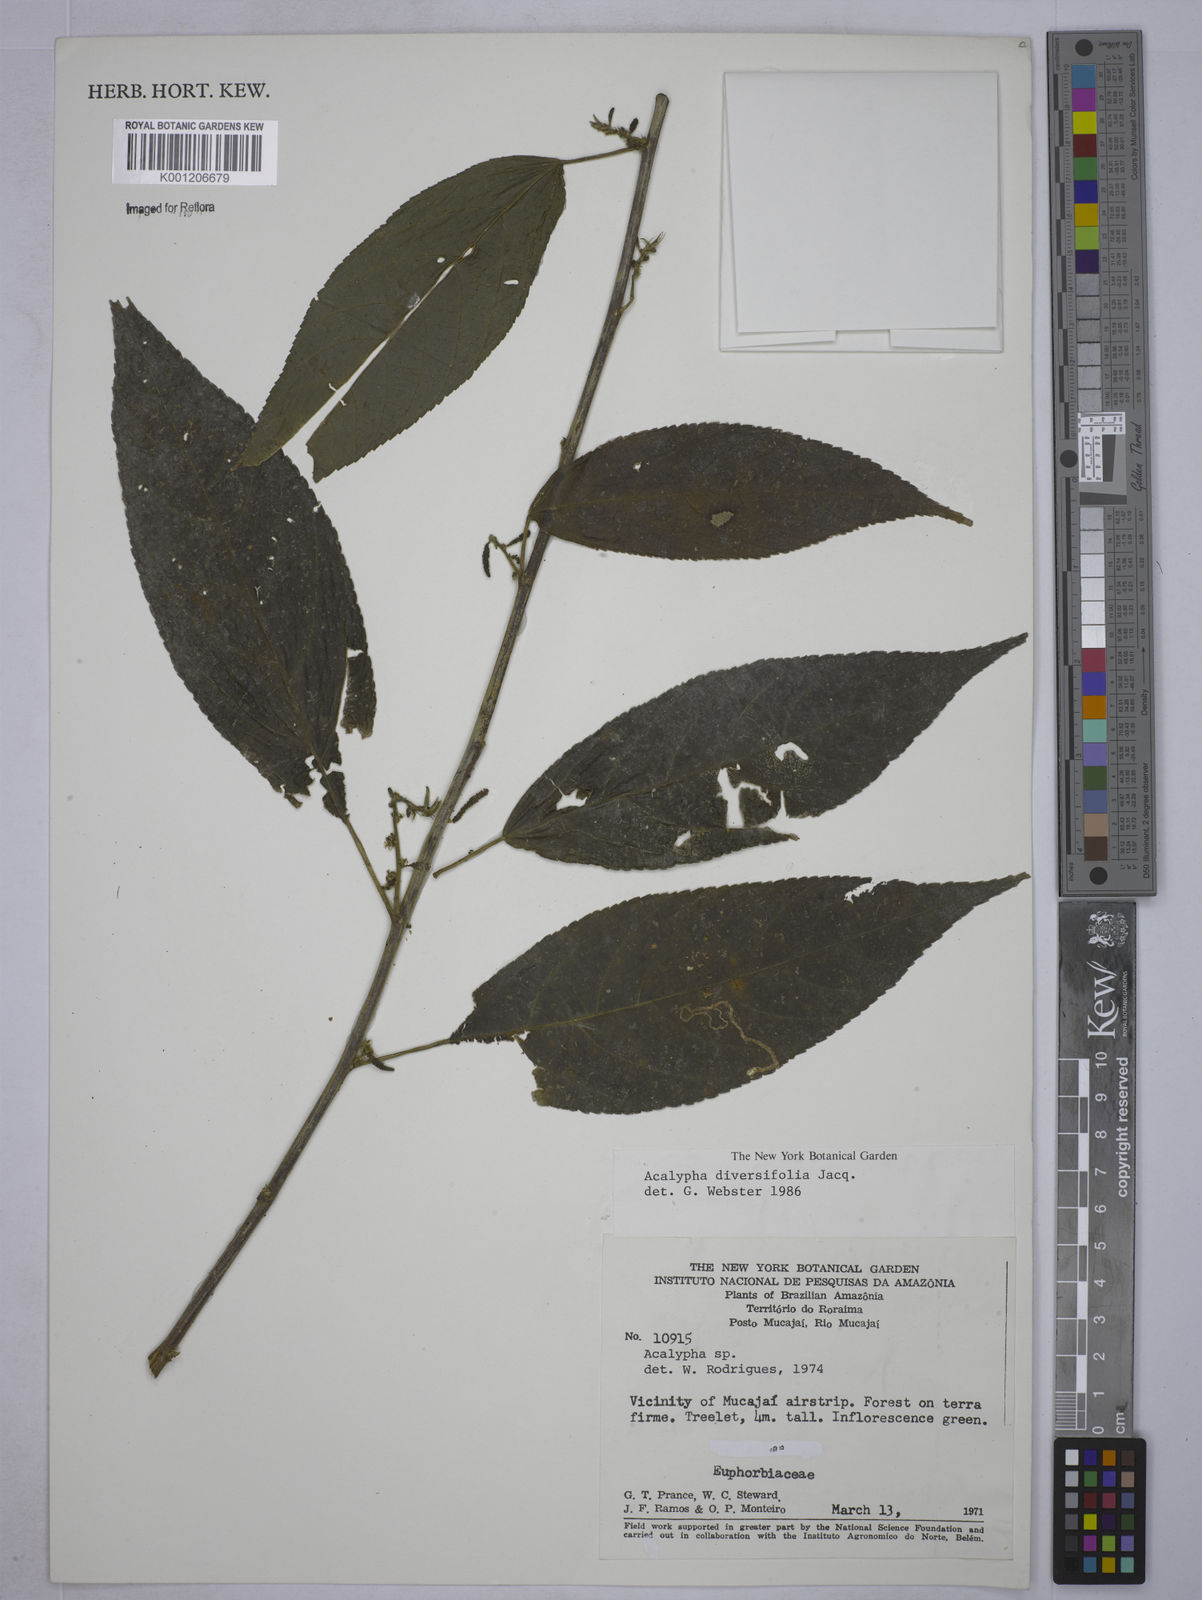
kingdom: Plantae
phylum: Tracheophyta
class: Magnoliopsida
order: Malpighiales
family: Euphorbiaceae
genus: Acalypha
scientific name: Acalypha diversifolia
